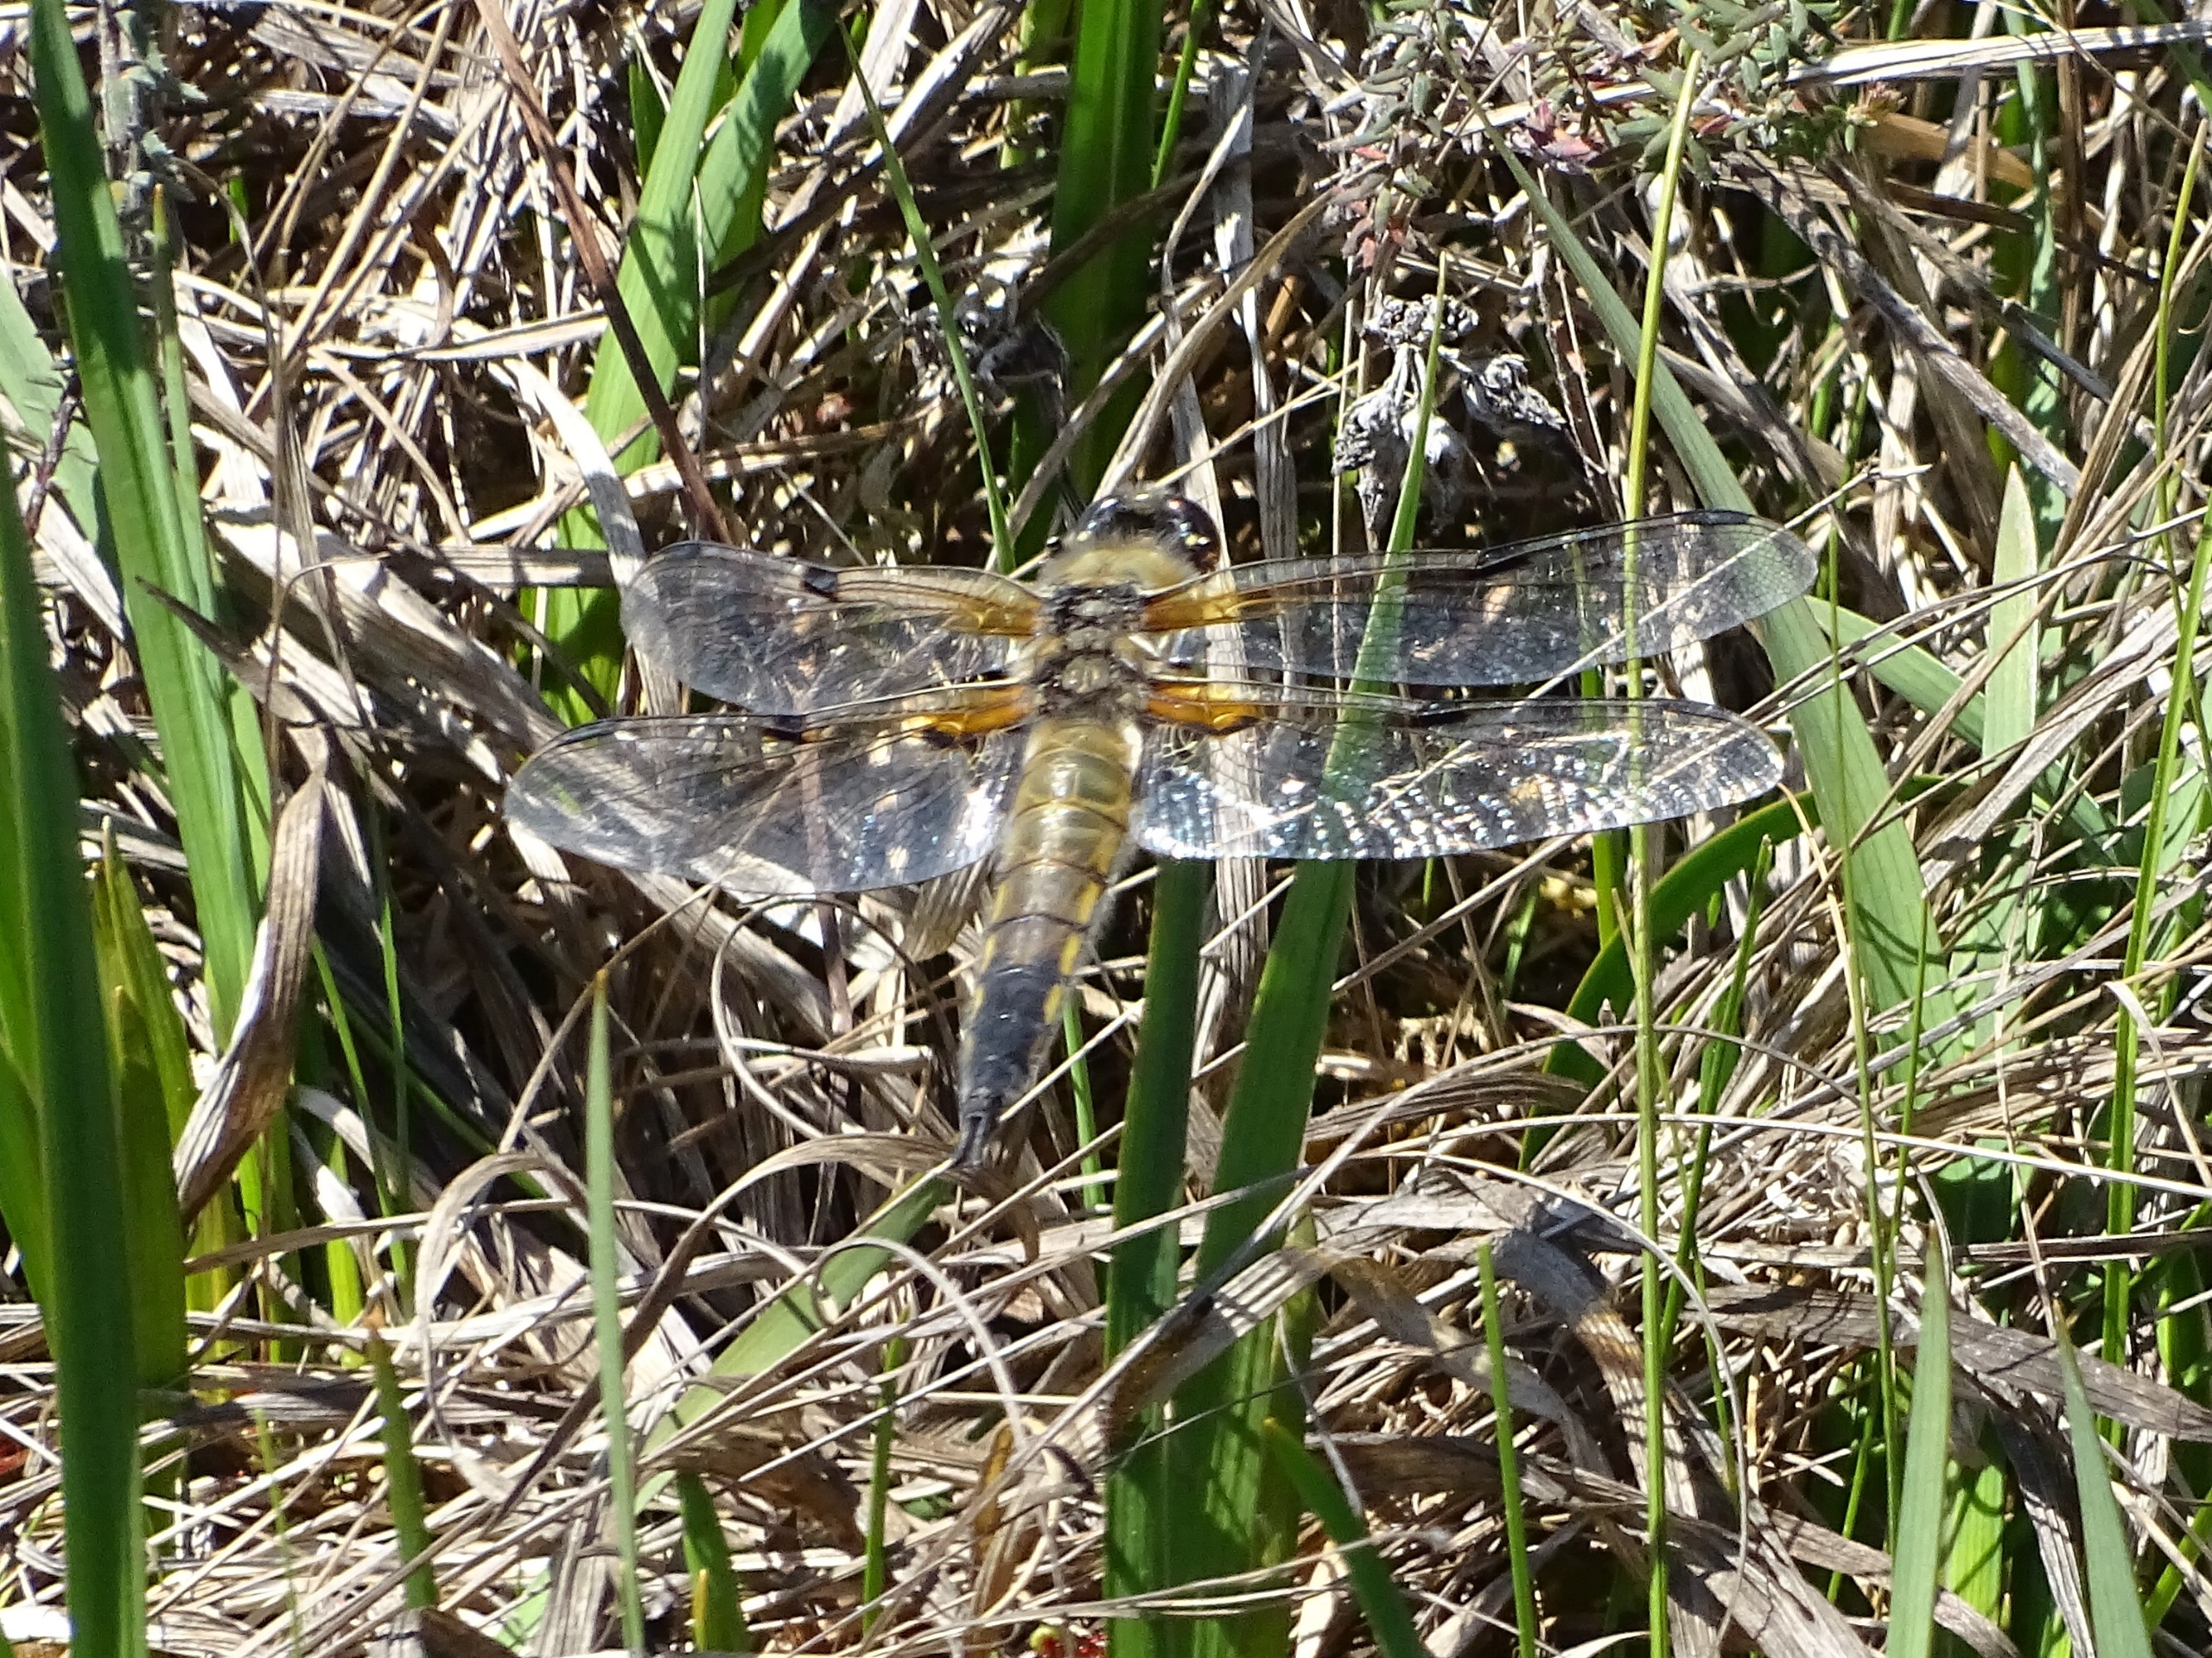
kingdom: Animalia
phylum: Arthropoda
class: Insecta
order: Odonata
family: Libellulidae
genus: Libellula
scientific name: Libellula quadrimaculata
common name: Fireplettet libel
